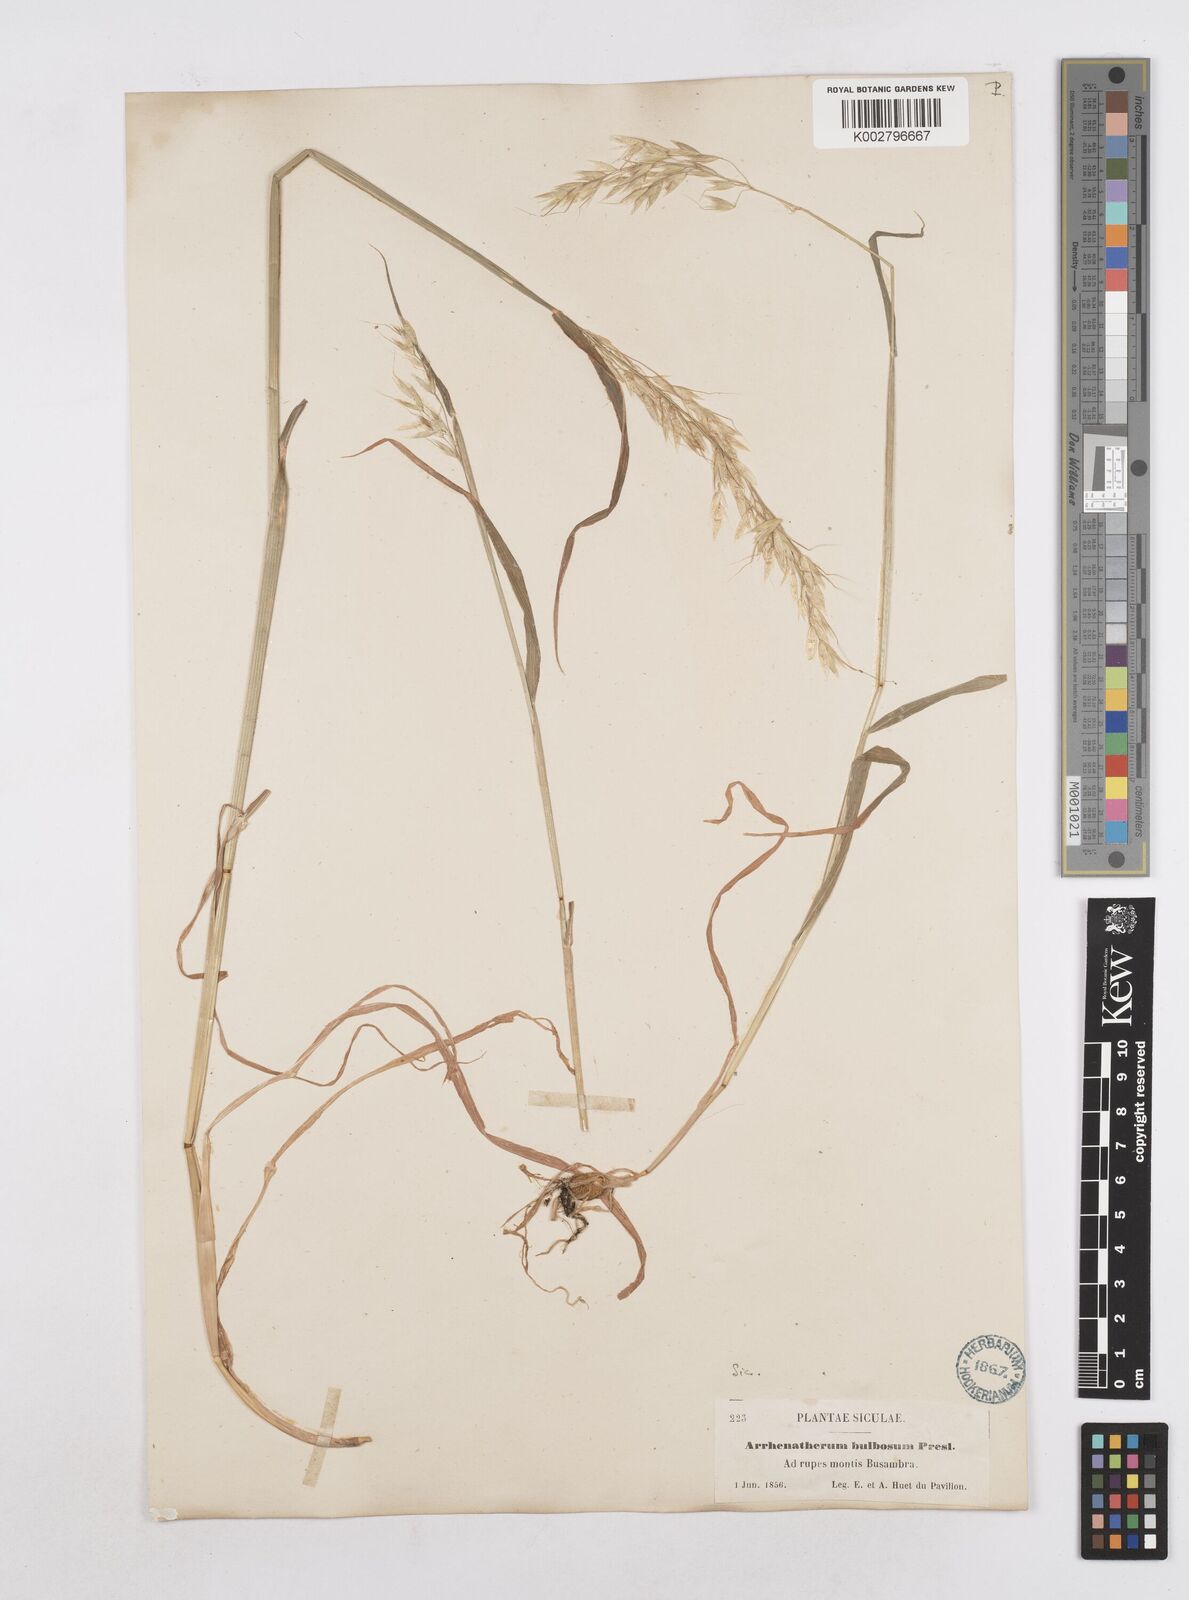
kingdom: Plantae
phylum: Tracheophyta
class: Liliopsida
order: Poales
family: Poaceae
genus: Arrhenatherum
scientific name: Arrhenatherum elatius
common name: Tall oatgrass
